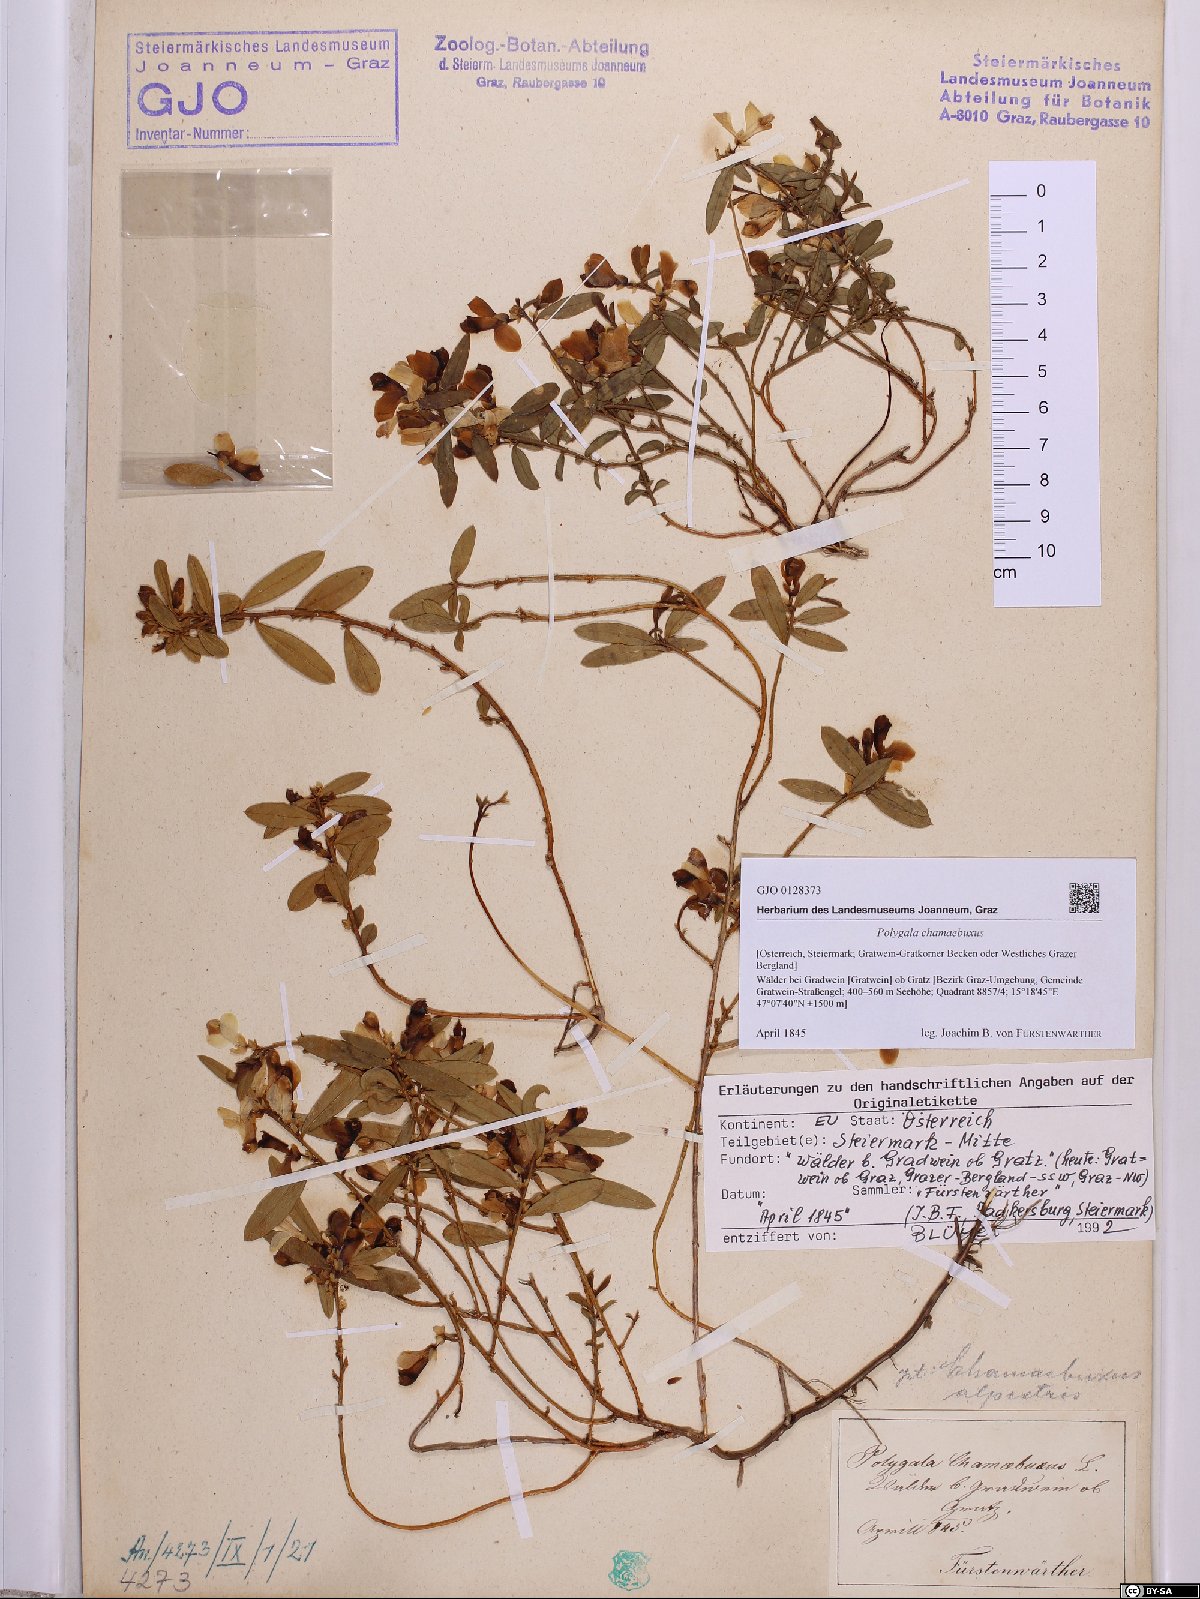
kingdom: Plantae
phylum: Tracheophyta
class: Magnoliopsida
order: Fabales
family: Polygalaceae
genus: Polygaloides
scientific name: Polygaloides chamaebuxus
